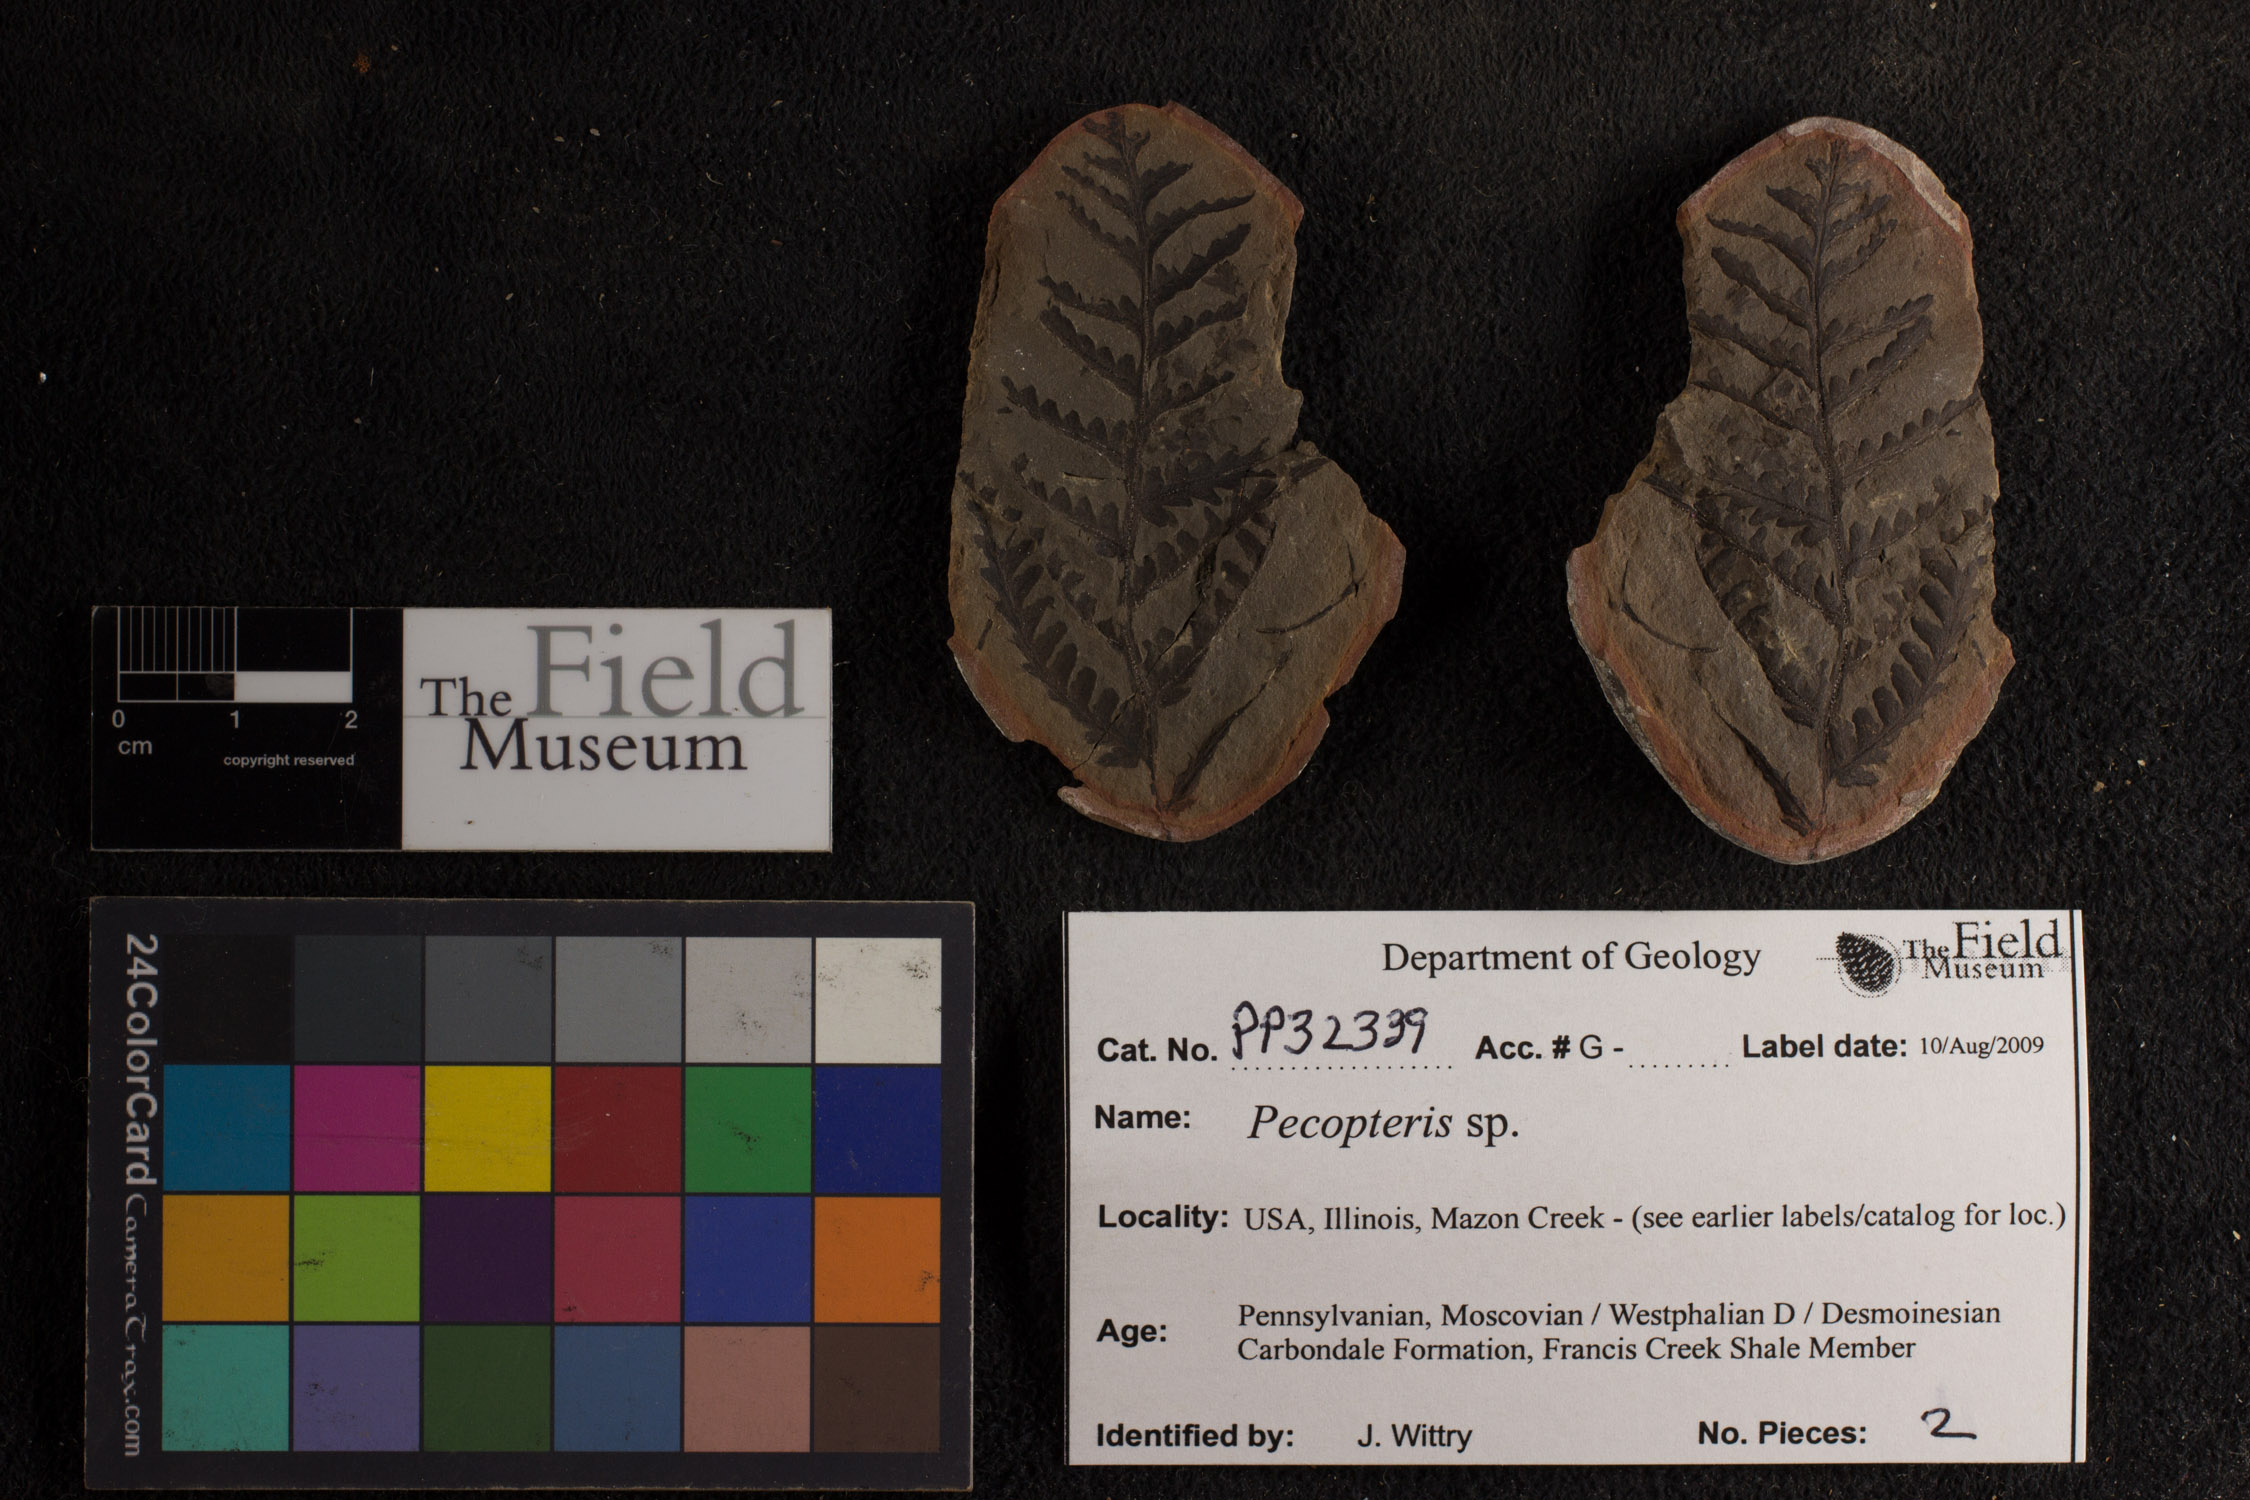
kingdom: Plantae
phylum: Tracheophyta
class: Polypodiopsida
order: Marattiales
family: Asterothecaceae
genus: Pecopteris
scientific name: Pecopteris
